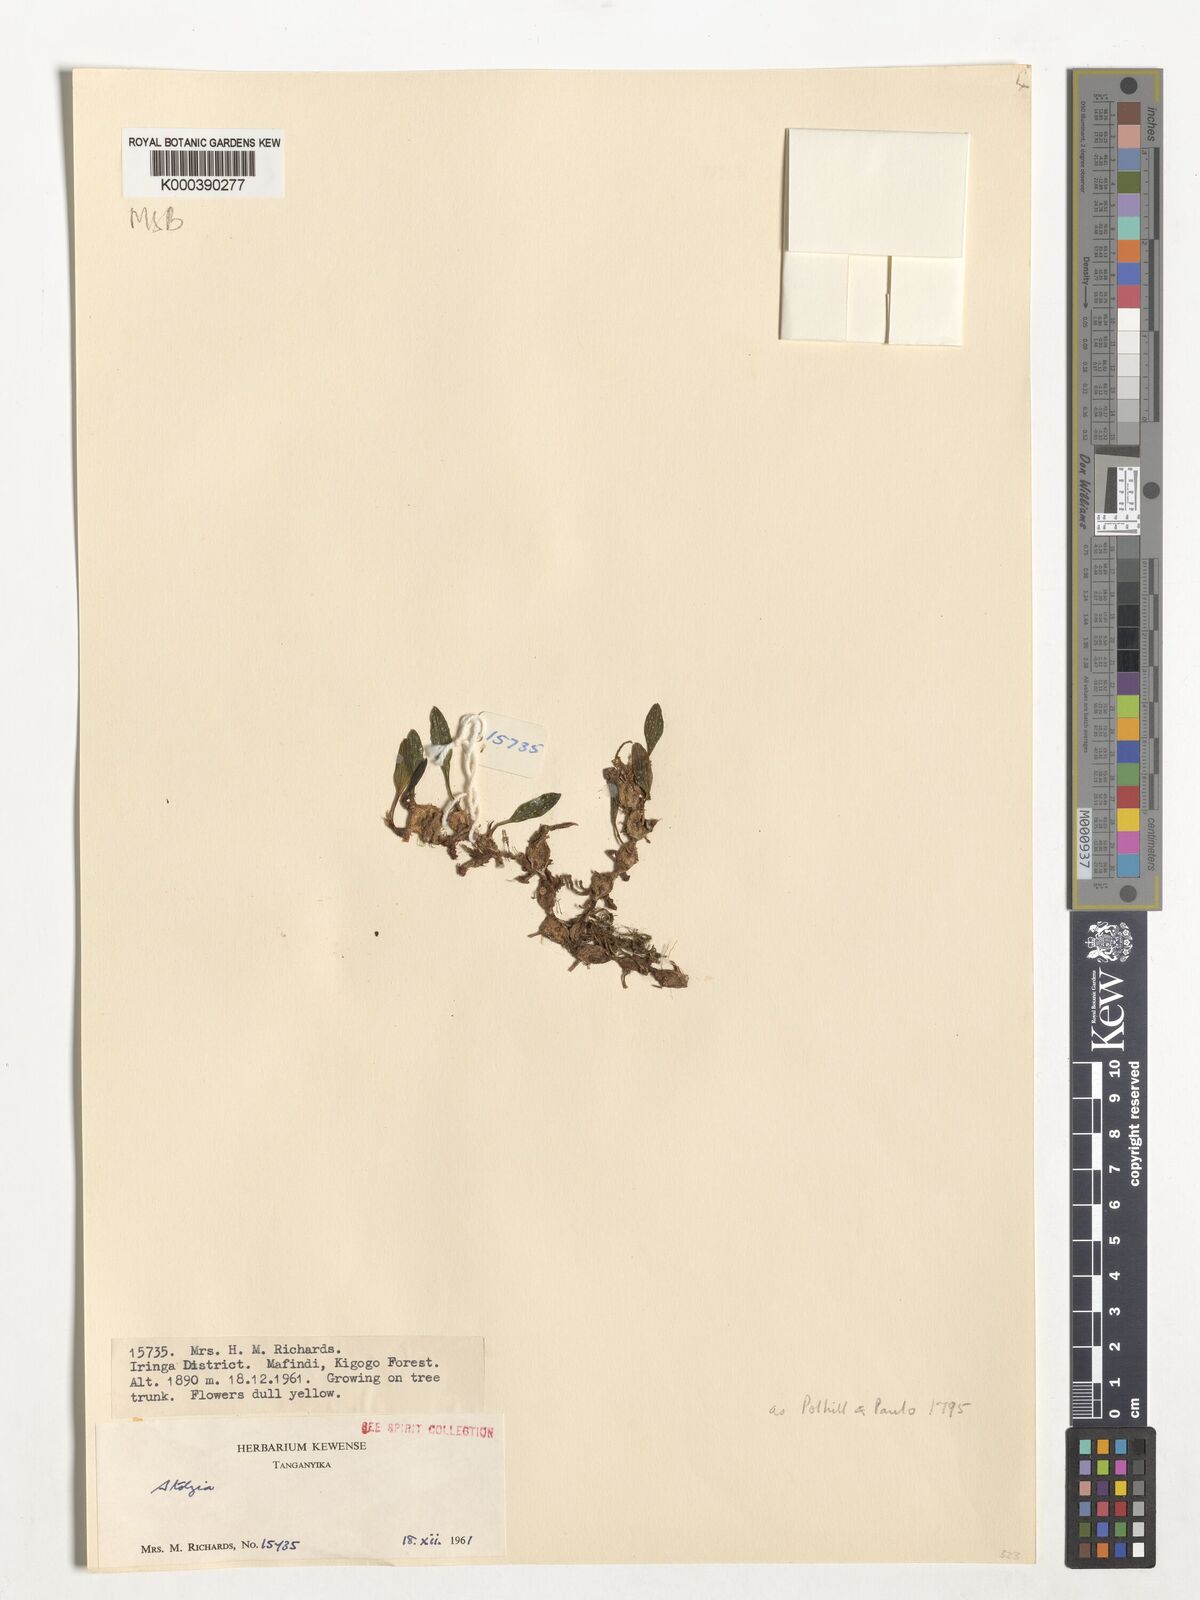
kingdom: Plantae
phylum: Tracheophyta
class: Liliopsida
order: Asparagales
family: Orchidaceae
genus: Porpax
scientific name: Porpax compacta
